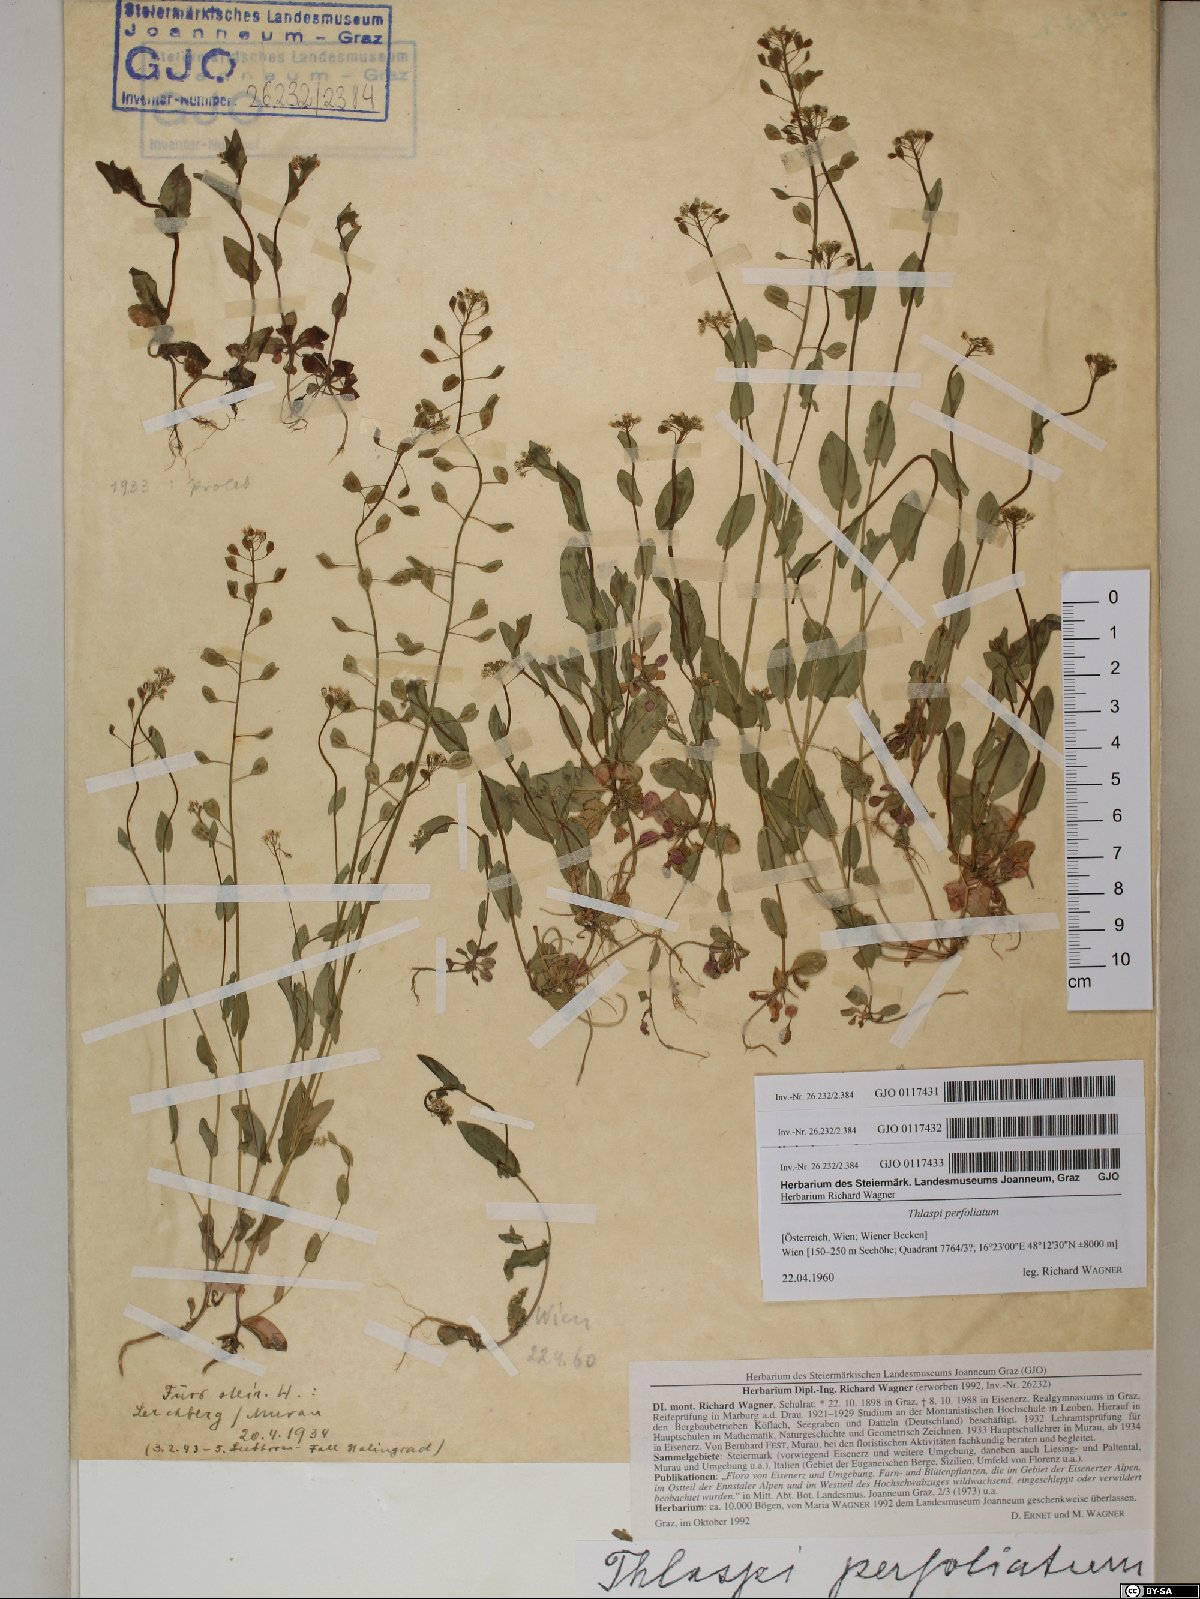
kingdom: Plantae
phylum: Tracheophyta
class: Magnoliopsida
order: Brassicales
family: Brassicaceae
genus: Noccaea
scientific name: Noccaea perfoliata
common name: Perfoliate pennycress
